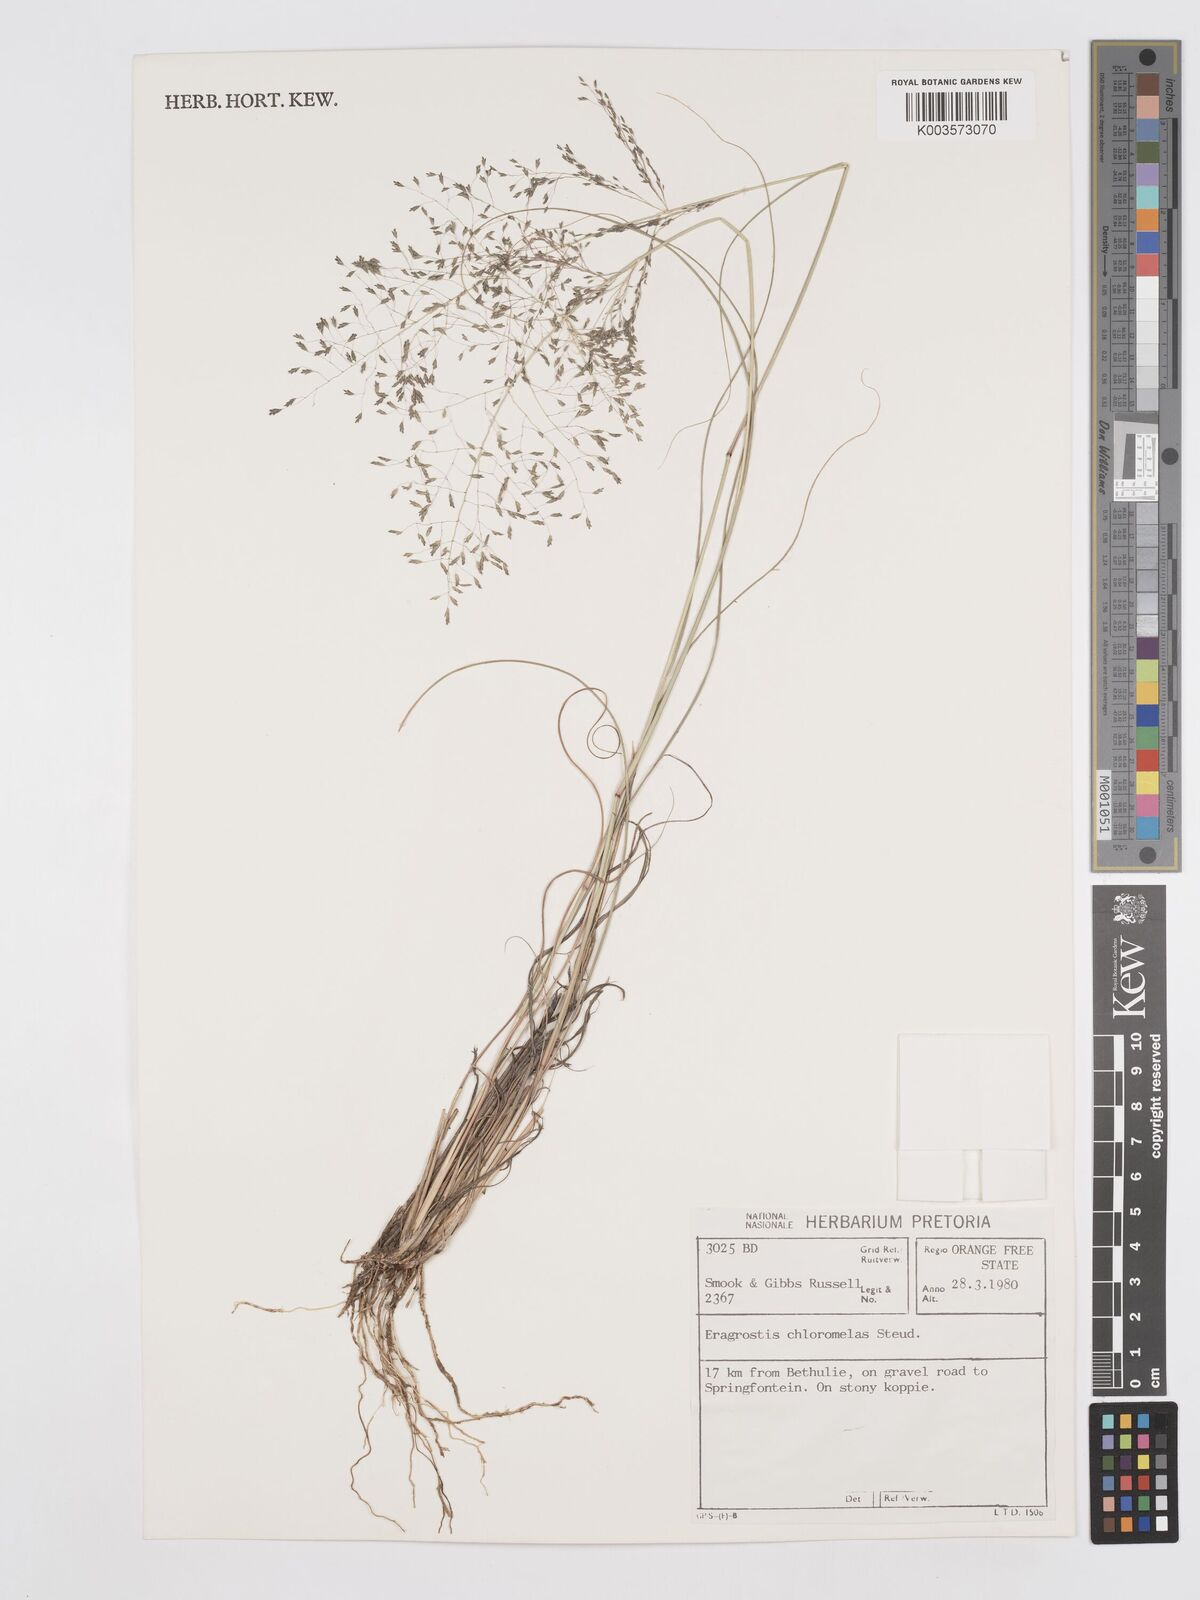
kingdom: Plantae
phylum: Tracheophyta
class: Liliopsida
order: Poales
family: Poaceae
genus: Eragrostis
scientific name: Eragrostis curvula
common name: African love-grass
